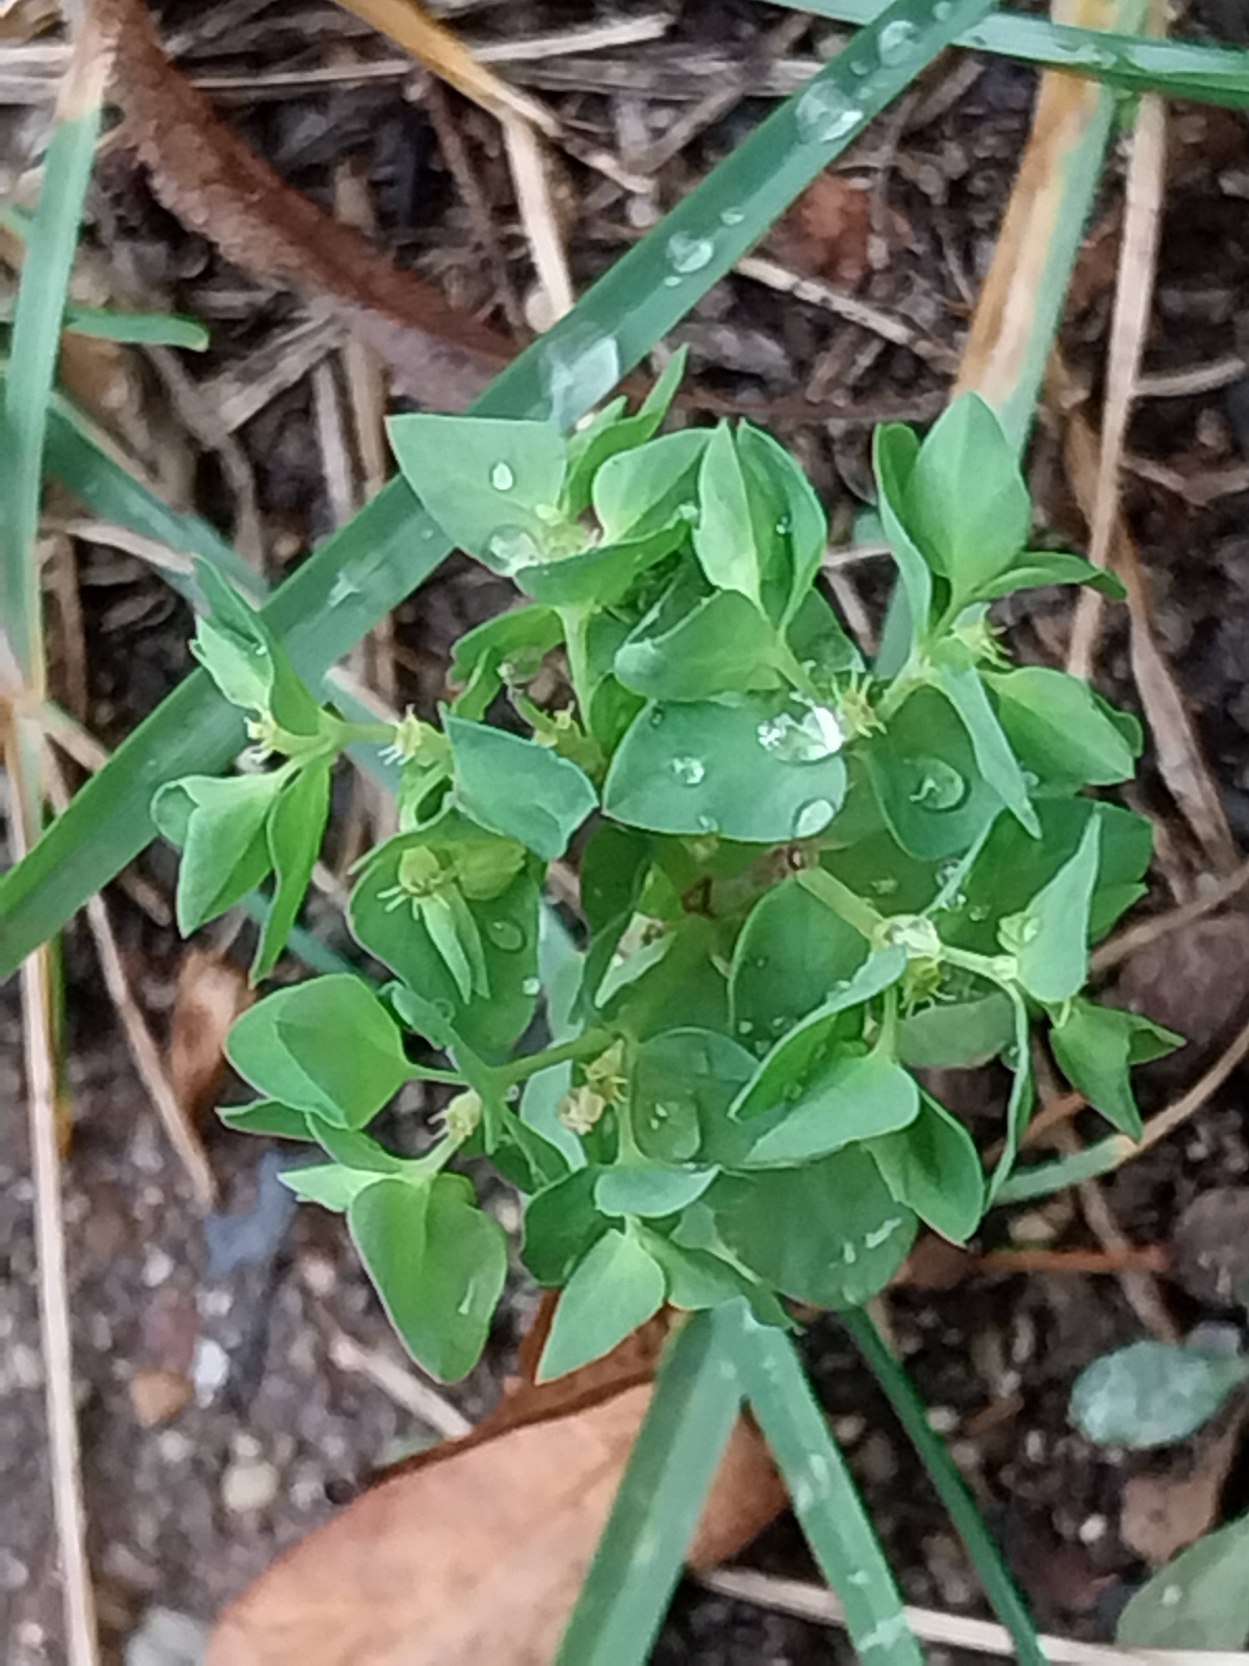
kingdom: Plantae
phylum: Tracheophyta
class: Magnoliopsida
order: Malpighiales
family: Euphorbiaceae
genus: Euphorbia
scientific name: Euphorbia peplus
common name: Gaffel-vortemælk
